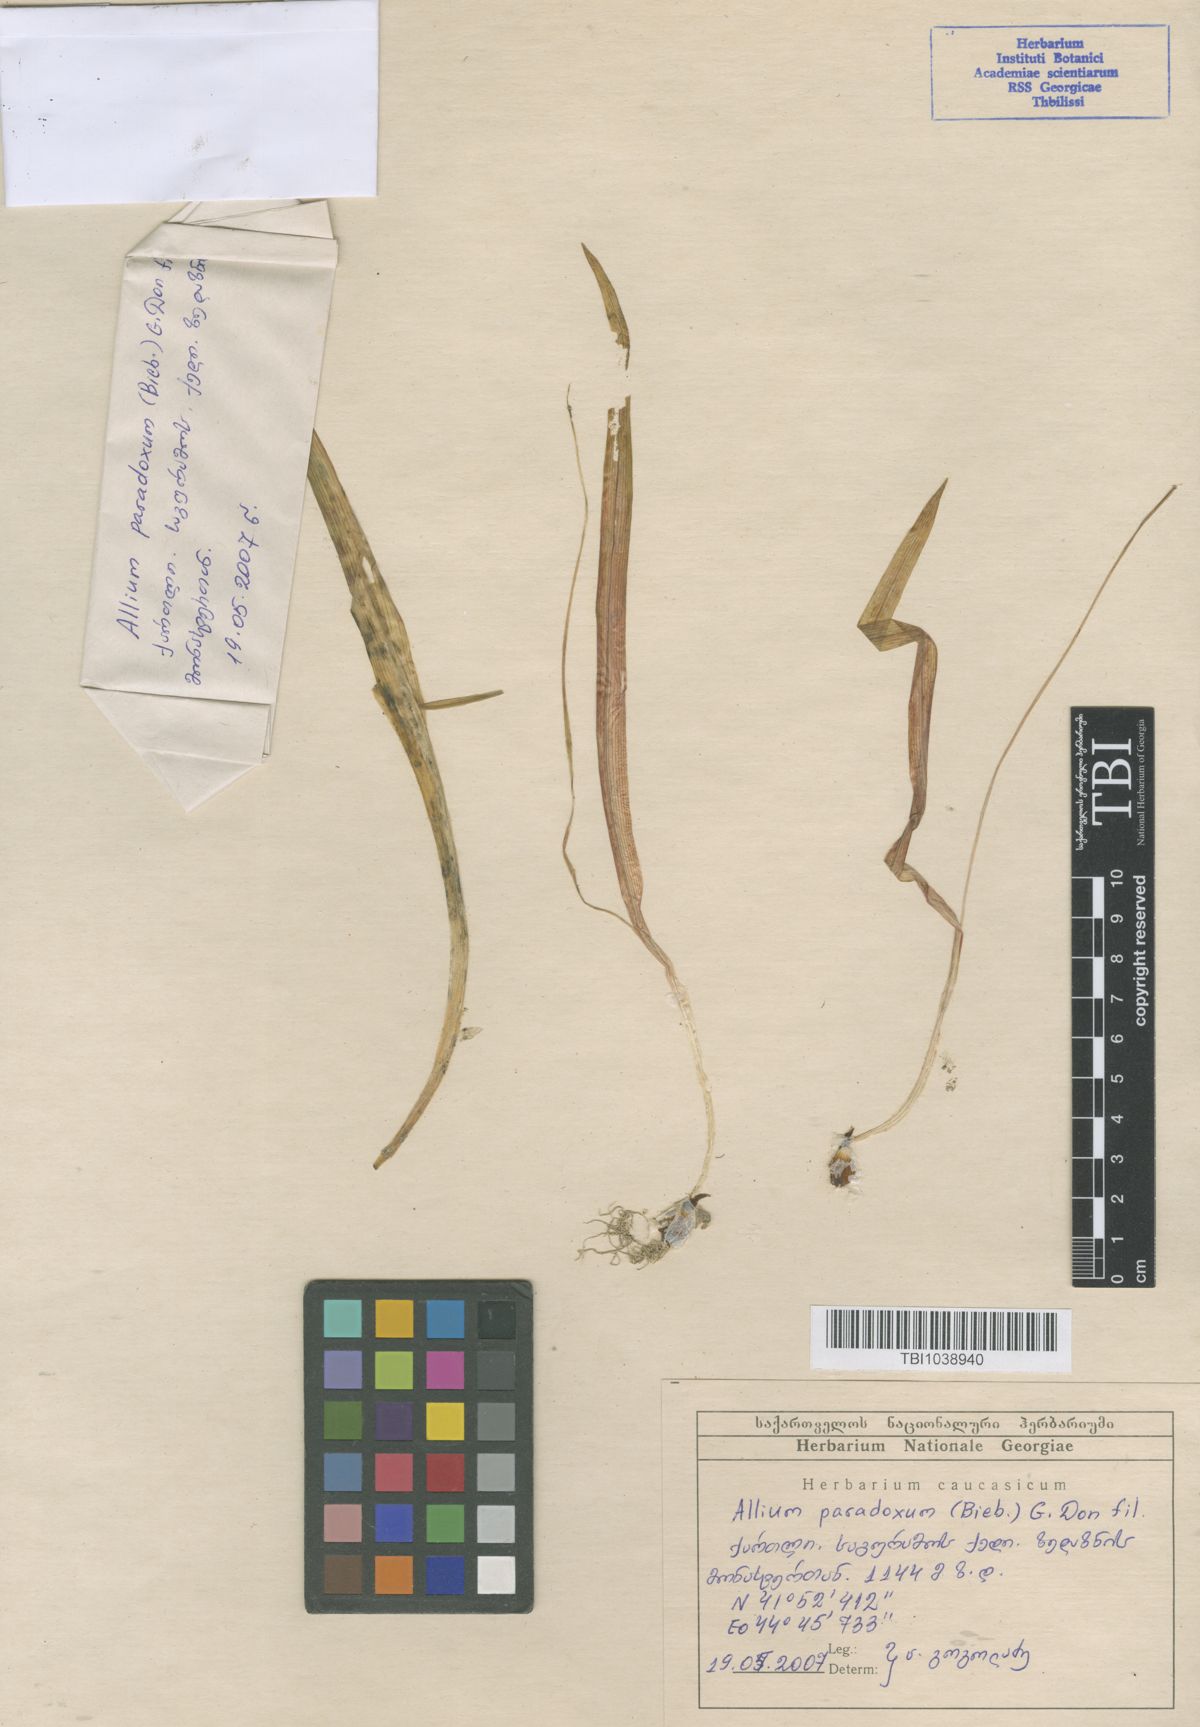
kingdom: Plantae
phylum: Tracheophyta
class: Liliopsida
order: Asparagales
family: Amaryllidaceae
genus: Allium
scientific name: Allium paradoxum
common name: Few-flowered garlic
